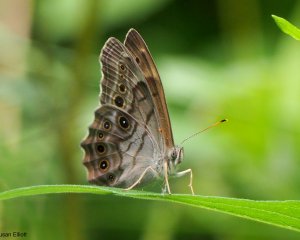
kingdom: Animalia
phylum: Arthropoda
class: Insecta
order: Lepidoptera
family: Nymphalidae
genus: Lethe
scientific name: Lethe anthedon
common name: Northern Pearly-Eye
